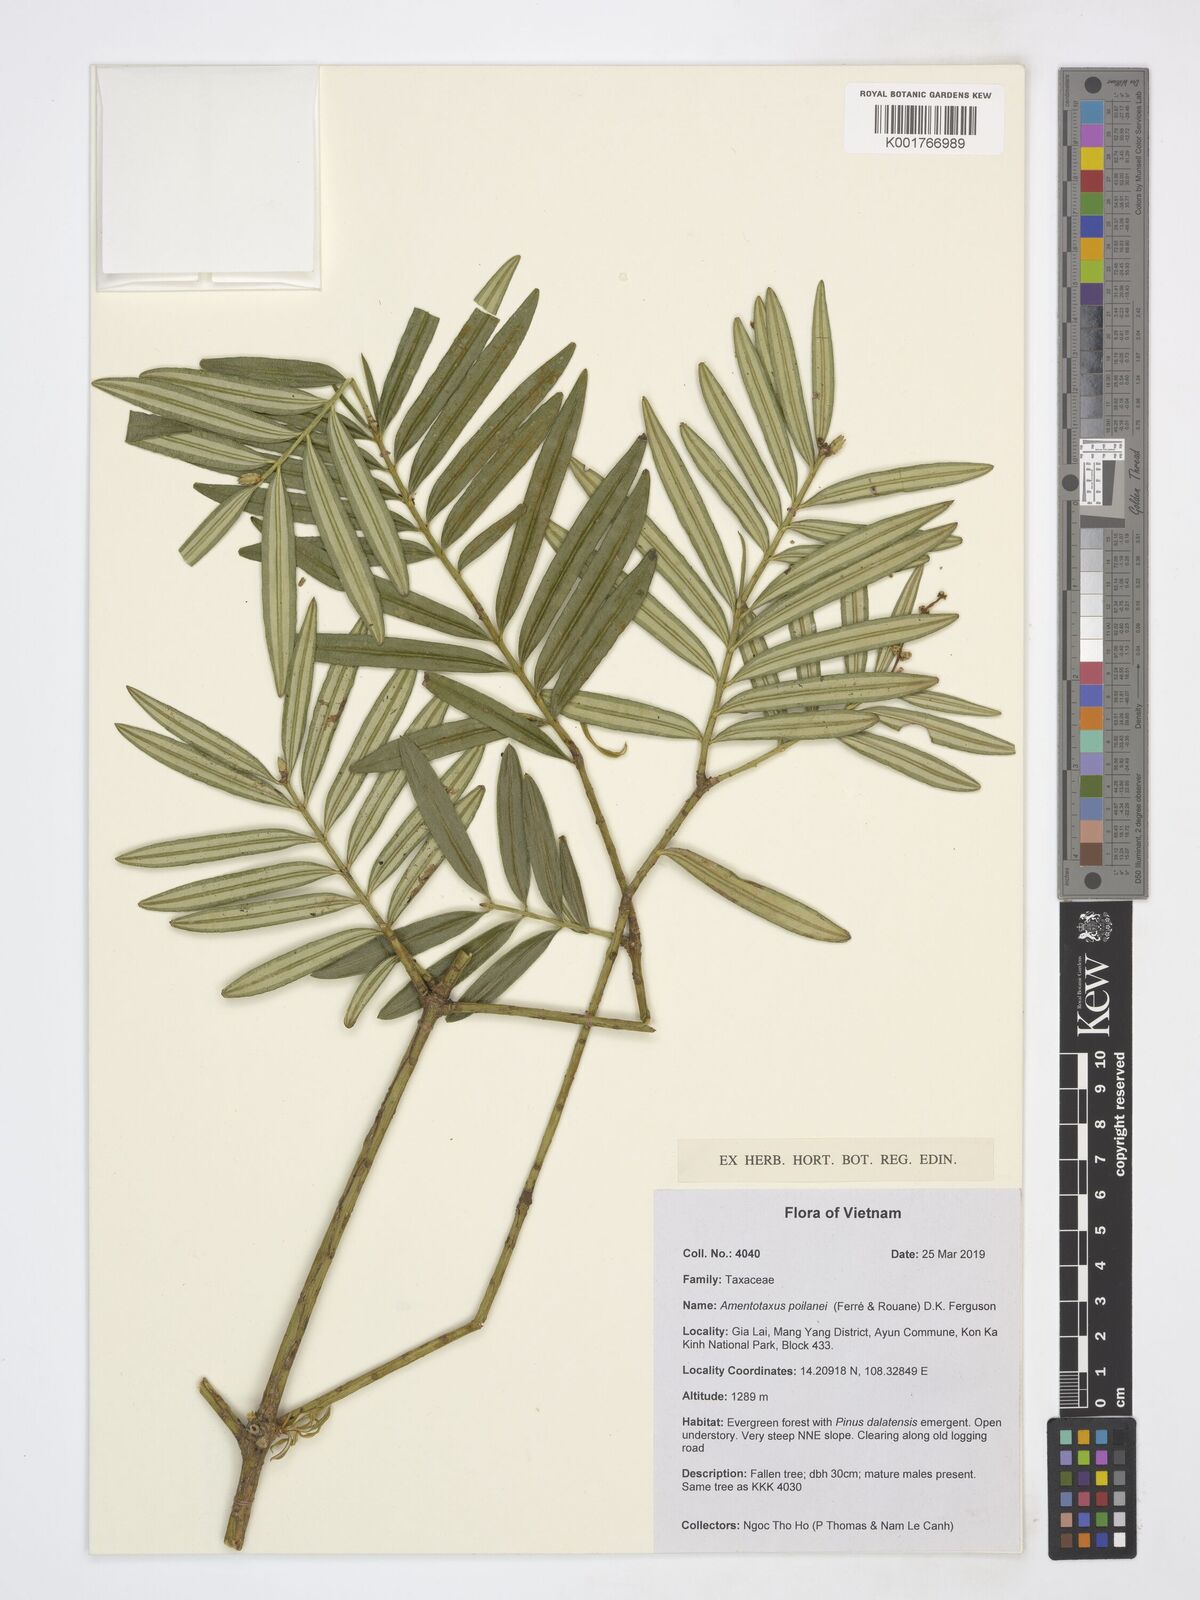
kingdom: Plantae
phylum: Tracheophyta
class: Pinopsida
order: Pinales
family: Taxaceae
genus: Amentotaxus
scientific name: Amentotaxus poilanei
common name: Poilane's catkin yew
